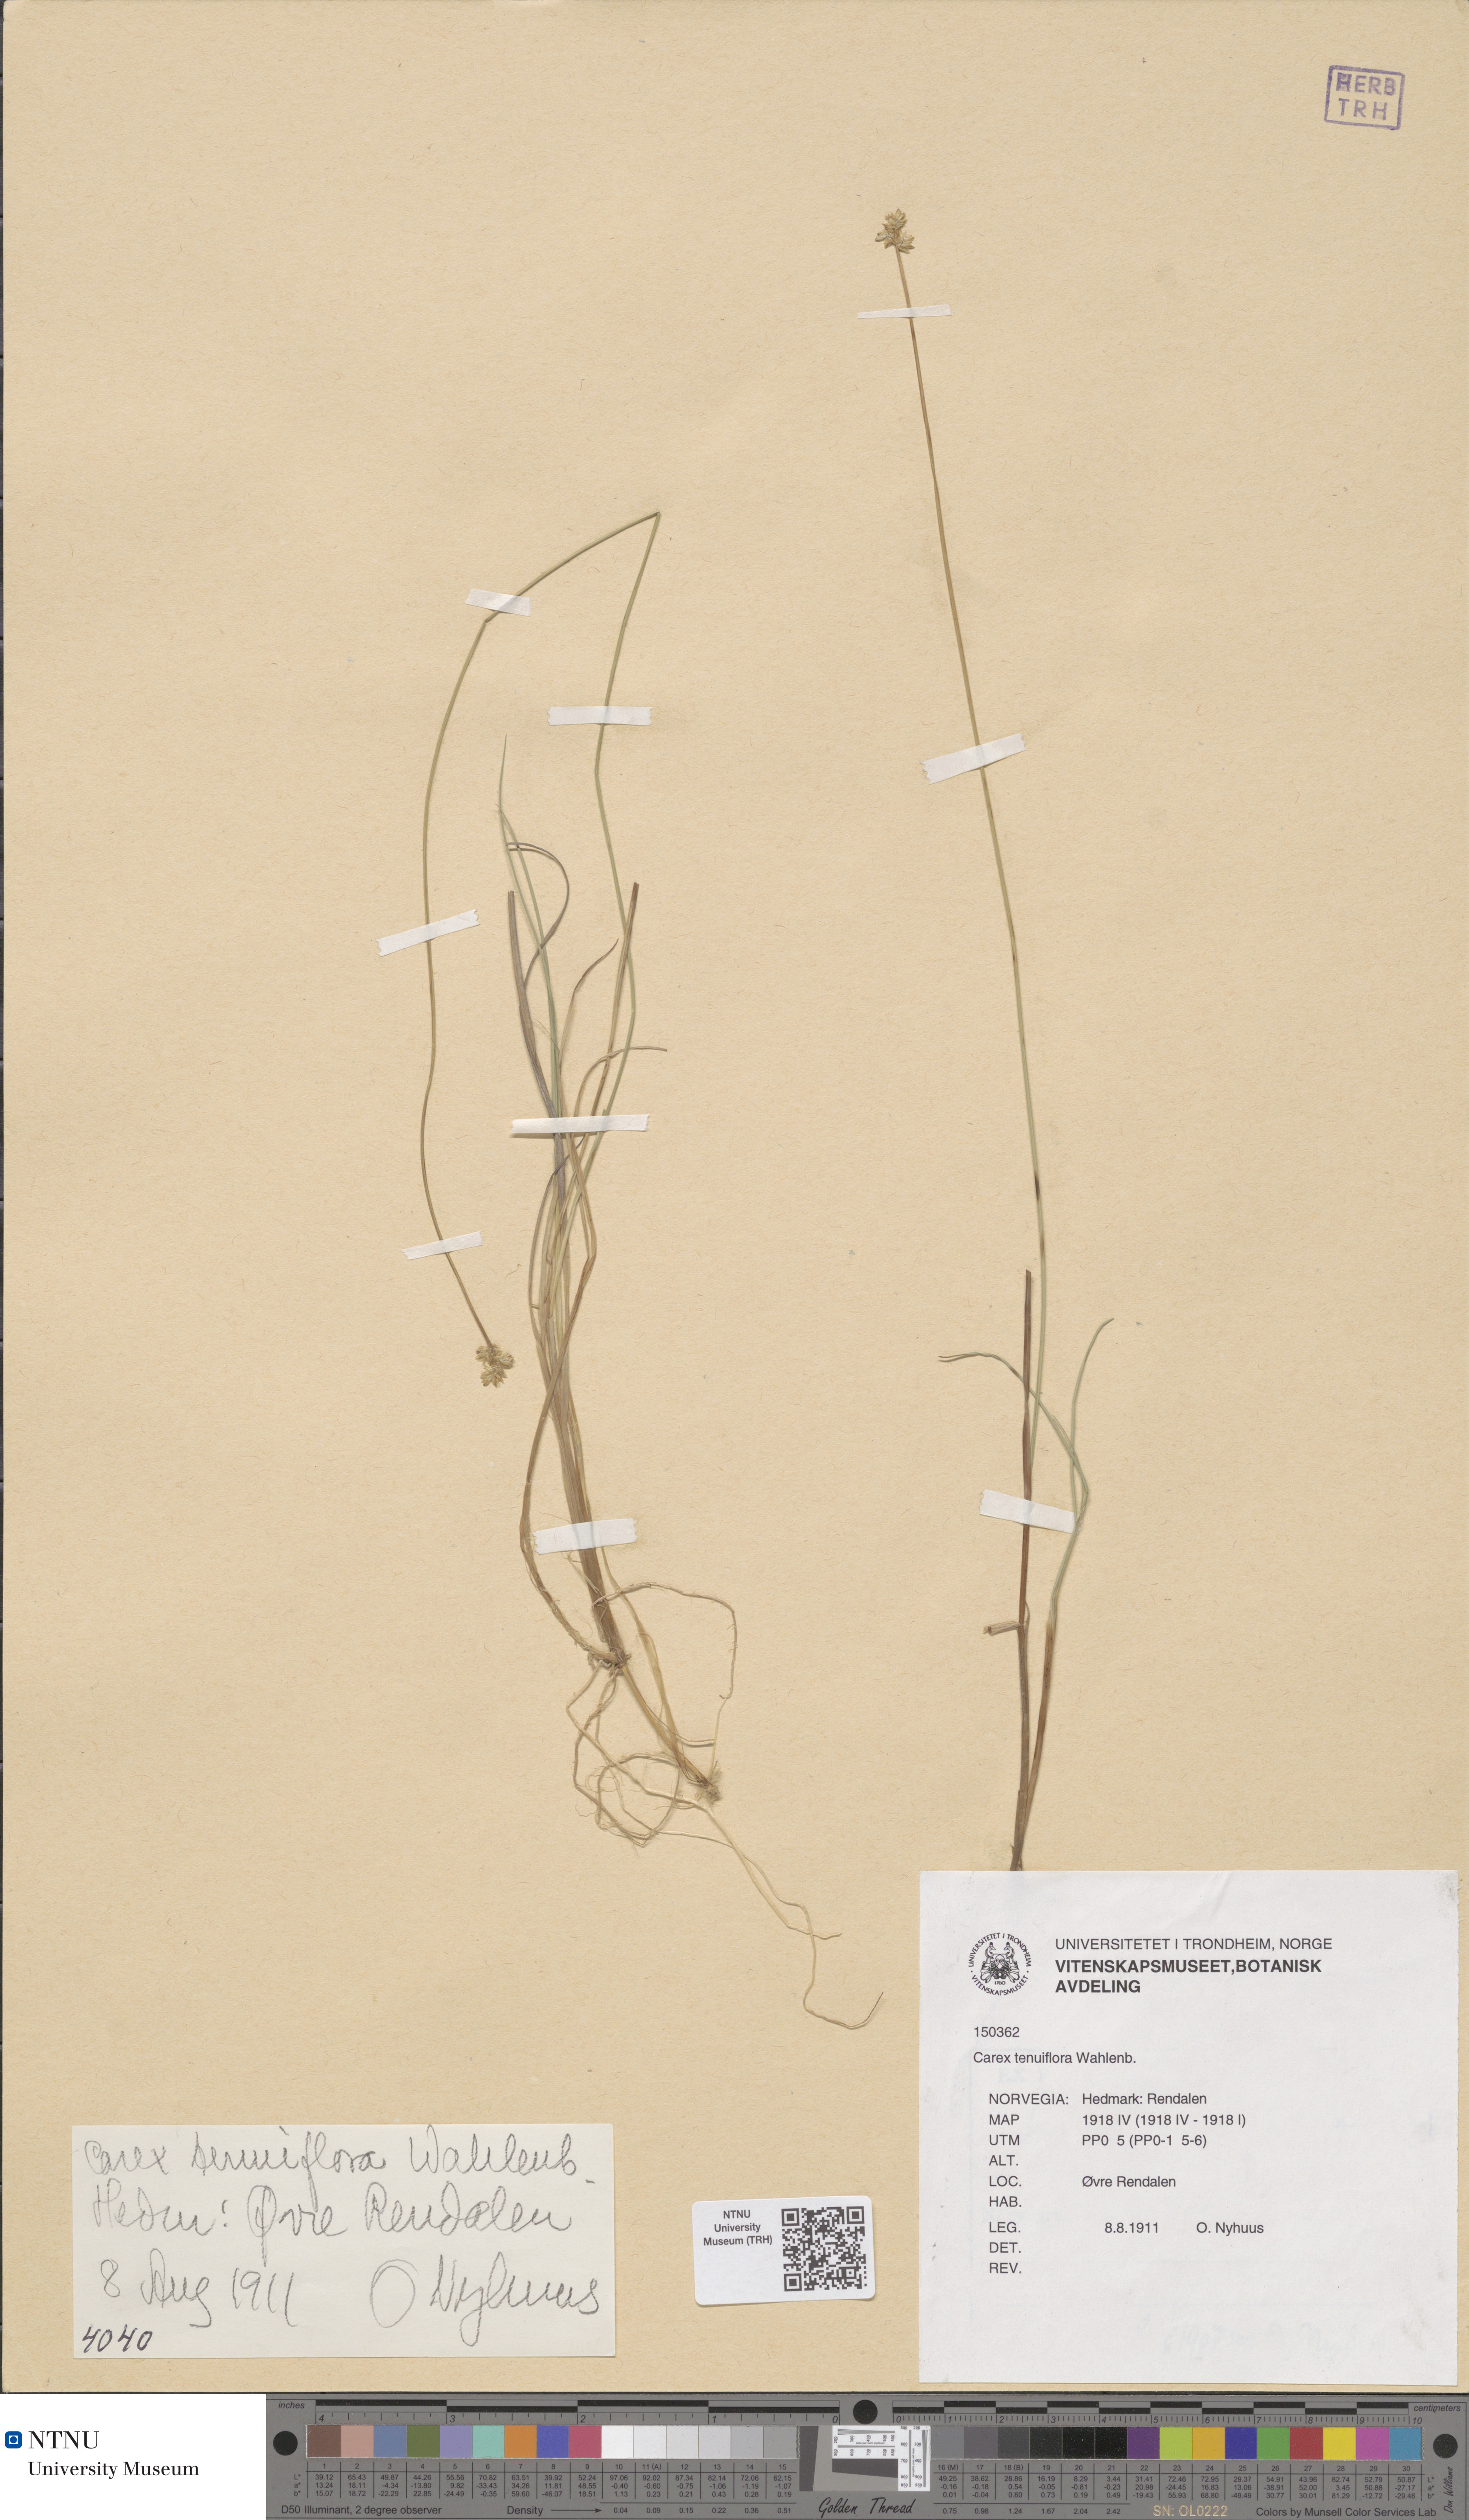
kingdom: Plantae
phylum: Tracheophyta
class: Liliopsida
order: Poales
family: Cyperaceae
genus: Carex
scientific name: Carex tenuiflora
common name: Sparse-flowered sedge
